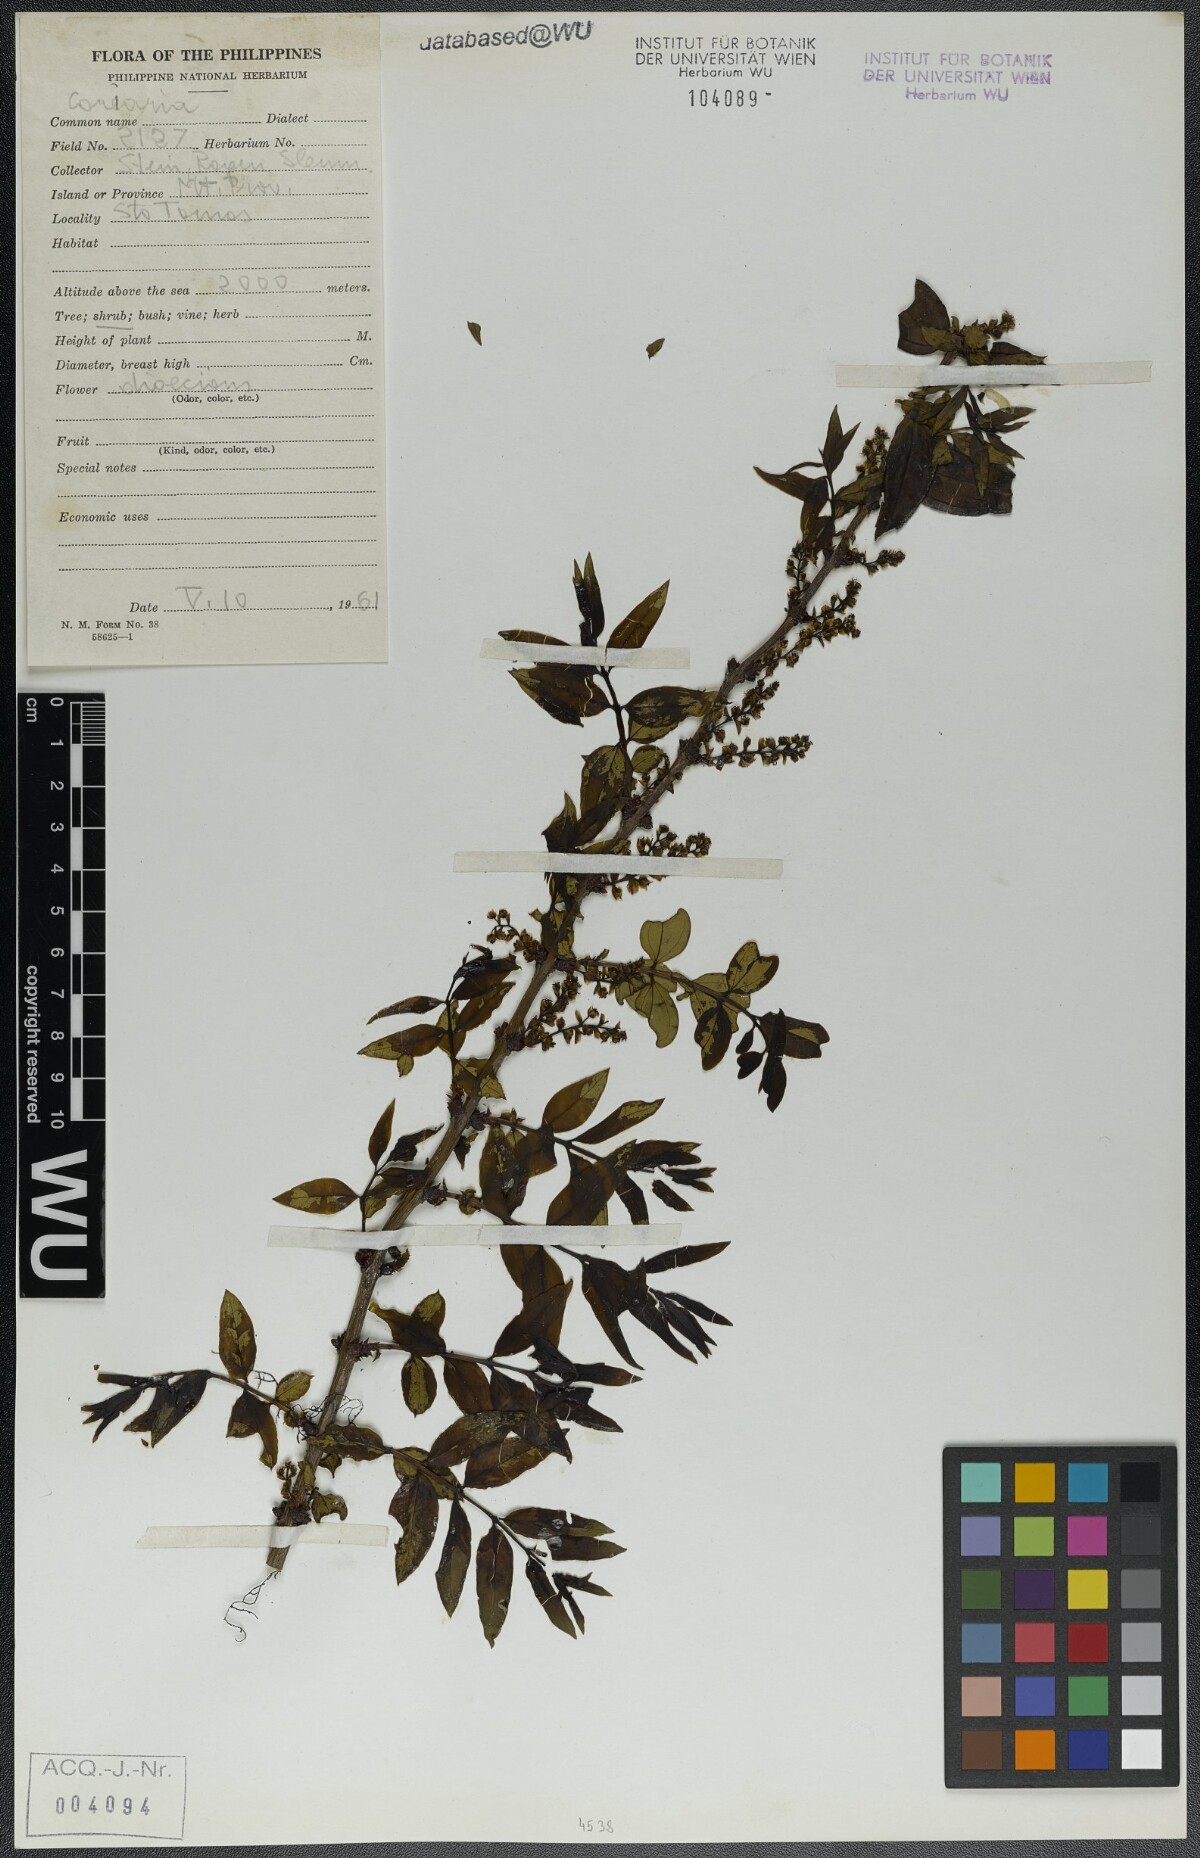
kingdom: Plantae
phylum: Tracheophyta
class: Magnoliopsida
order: Cucurbitales
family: Coriariaceae
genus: Coriaria
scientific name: Coriaria
